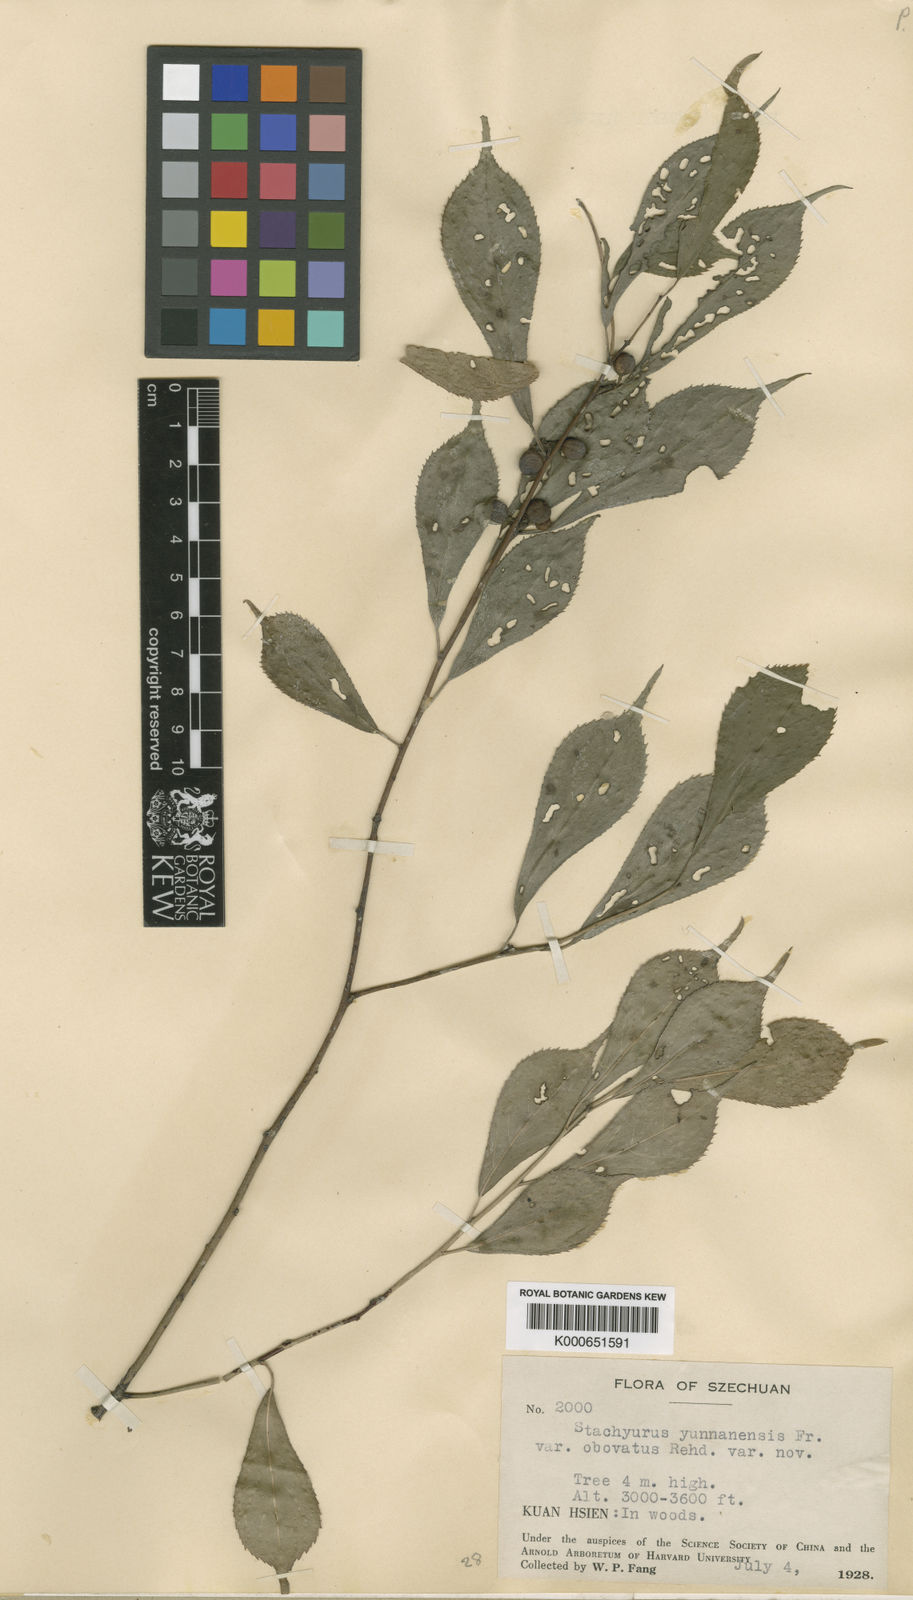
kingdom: Plantae
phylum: Tracheophyta
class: Magnoliopsida
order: Crossosomatales
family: Stachyuraceae
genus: Stachyurus
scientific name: Stachyurus yunnanensis
